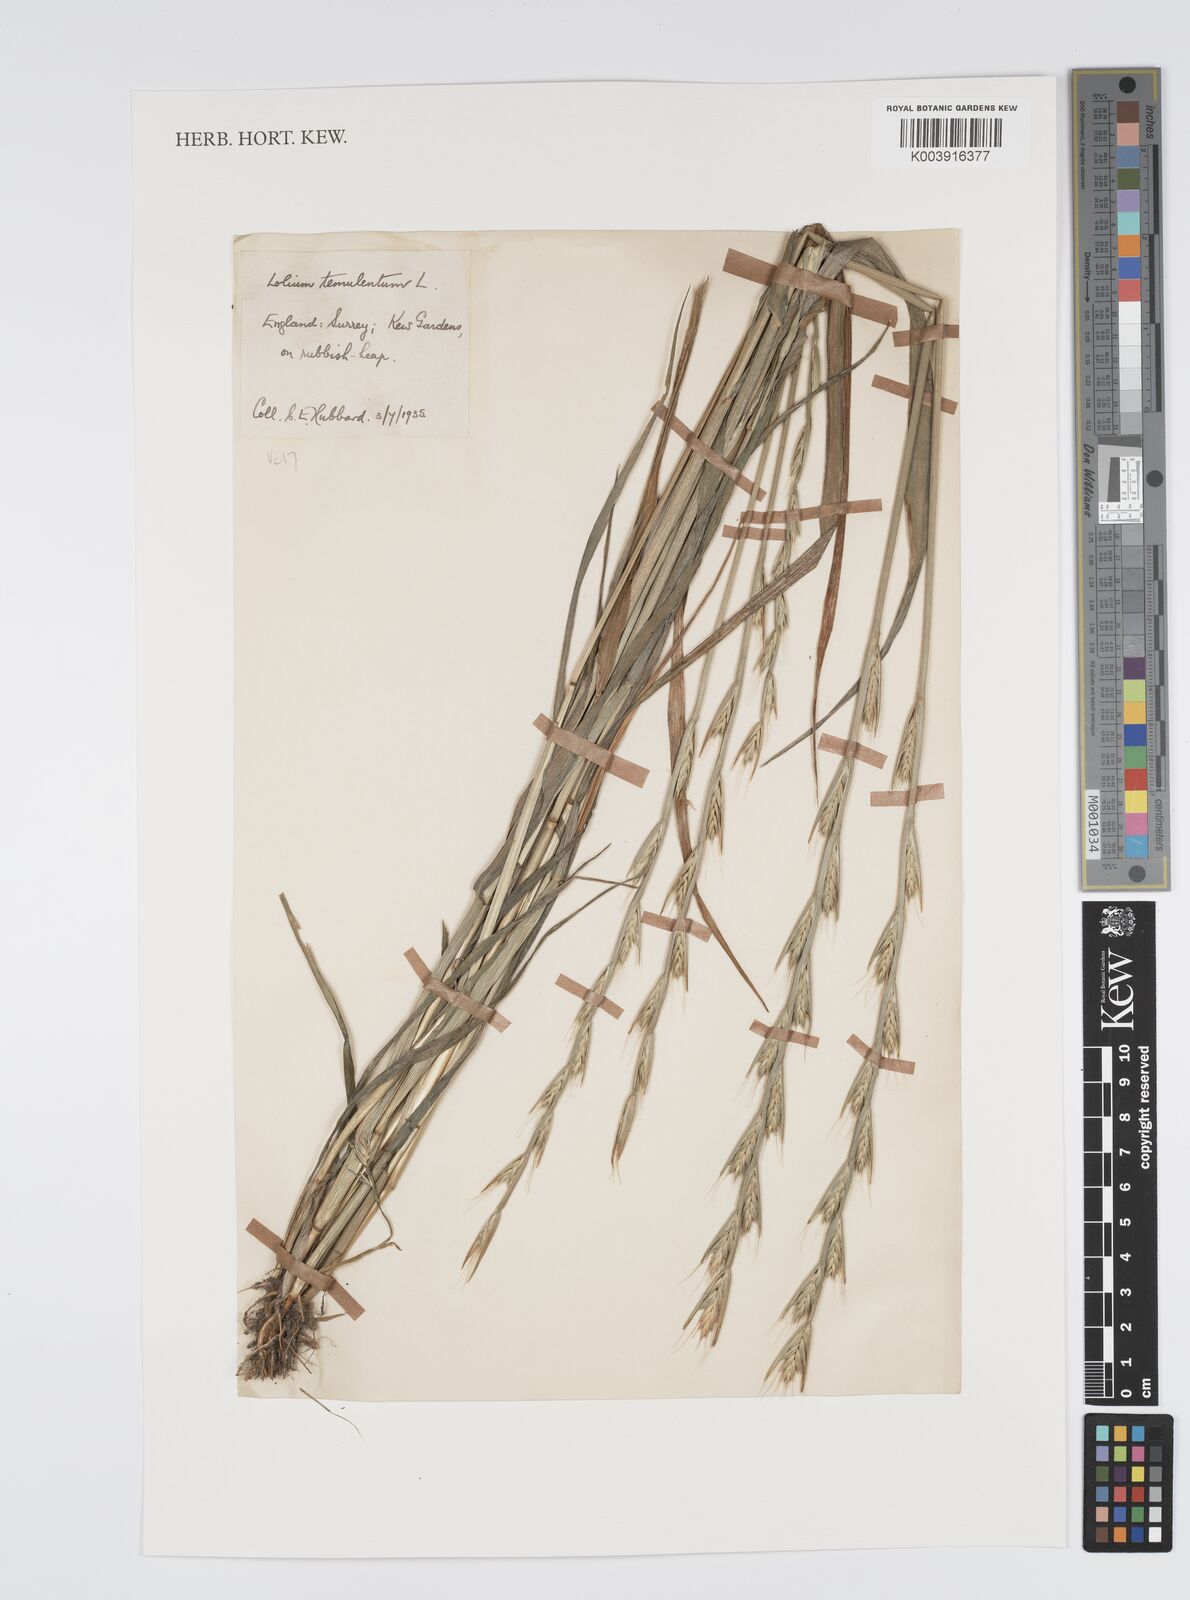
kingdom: Plantae
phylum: Tracheophyta
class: Liliopsida
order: Poales
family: Poaceae
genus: Lolium
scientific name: Lolium temulentum
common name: Darnel
